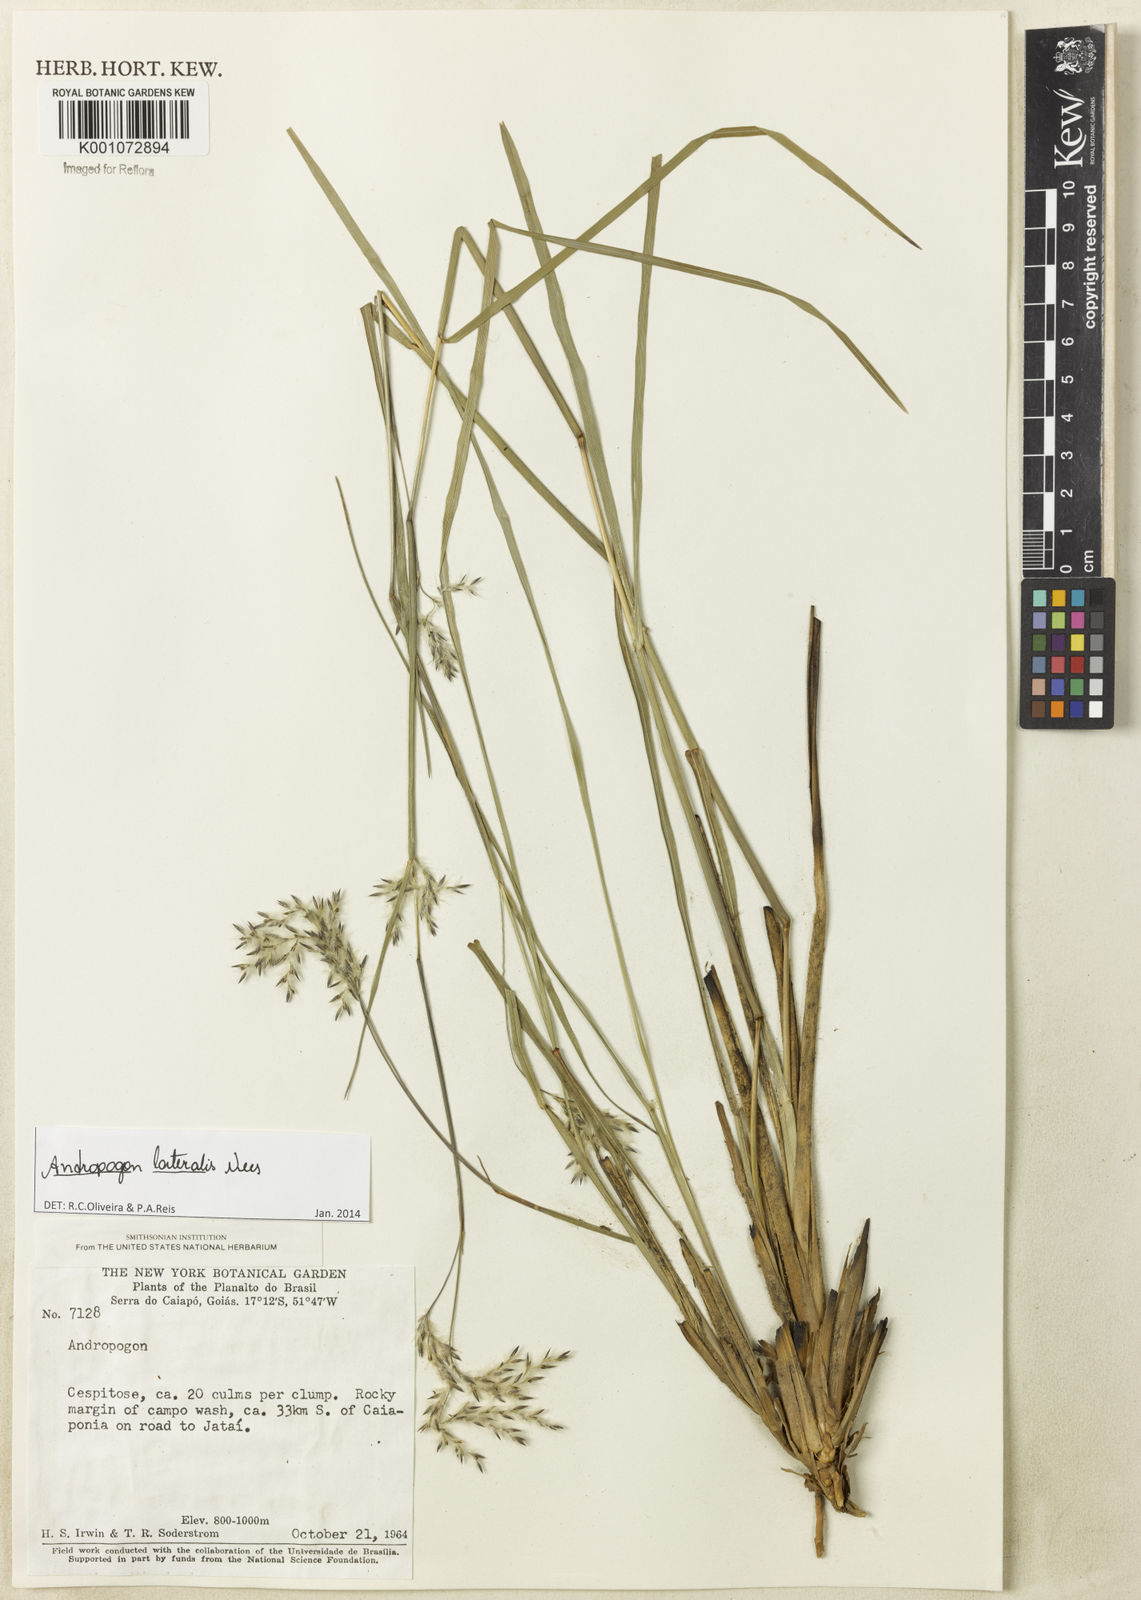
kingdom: Plantae
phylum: Tracheophyta
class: Liliopsida
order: Poales
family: Poaceae
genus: Andropogon
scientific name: Andropogon lateralis
